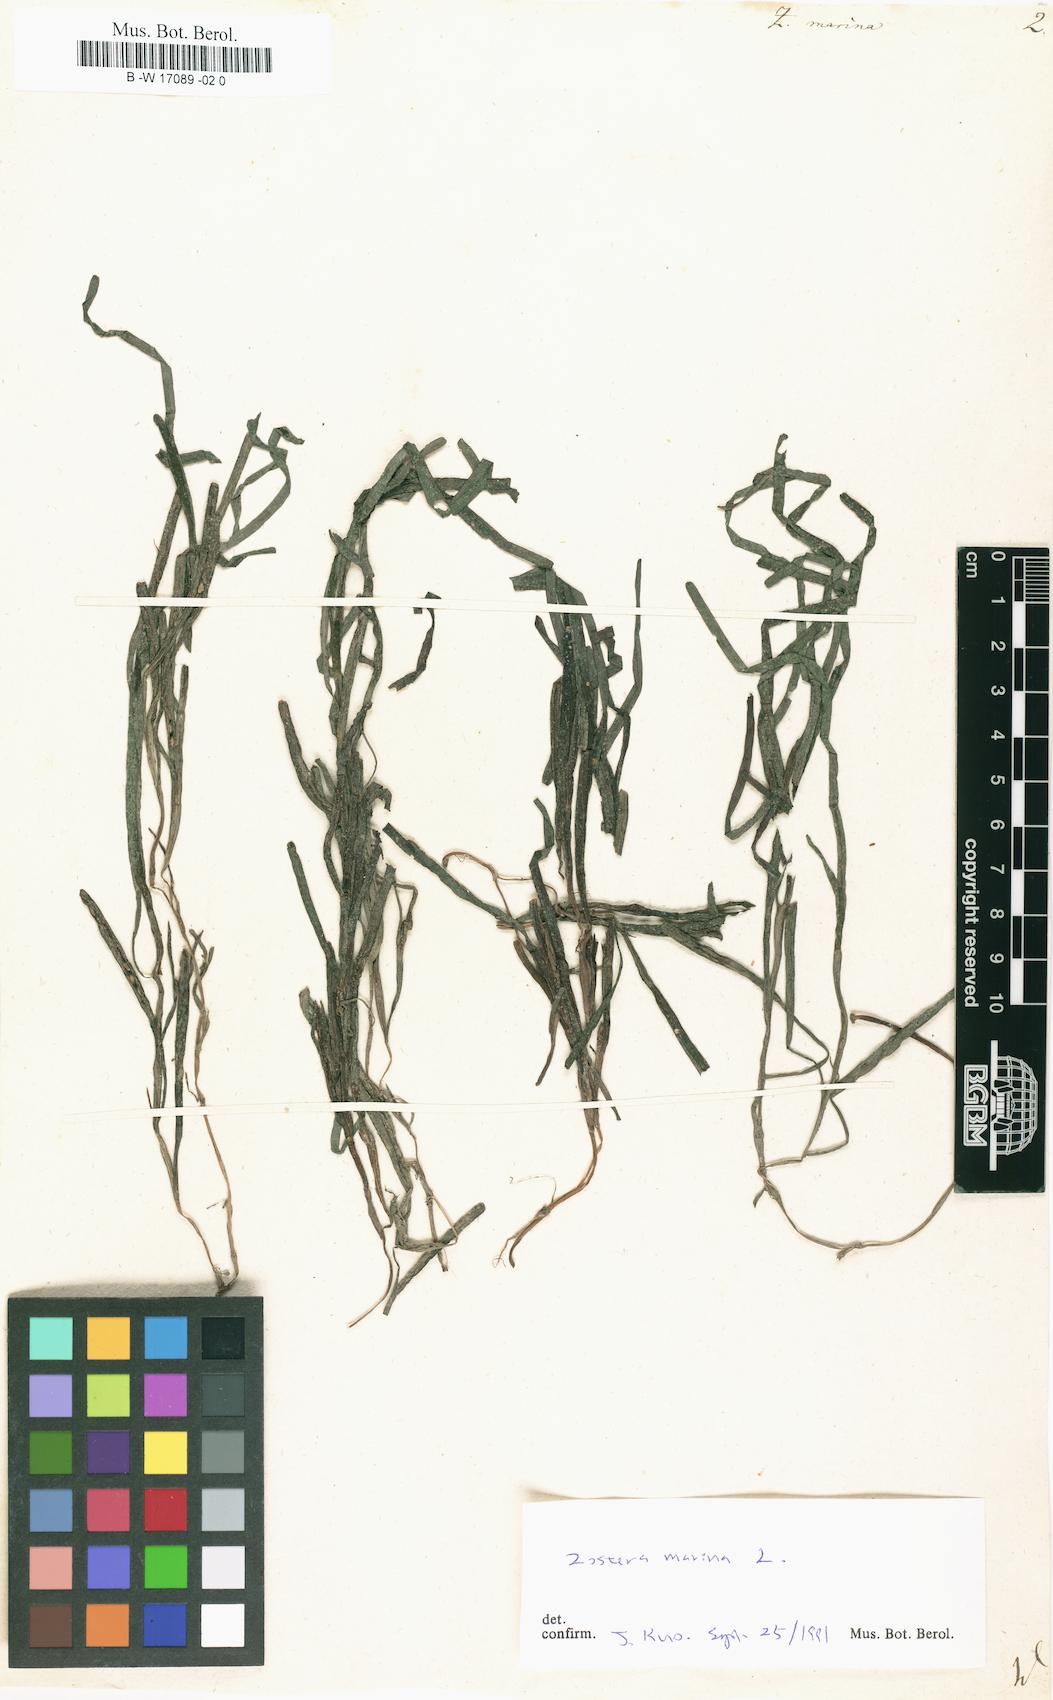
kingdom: Plantae
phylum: Tracheophyta
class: Liliopsida
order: Alismatales
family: Zosteraceae
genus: Zostera
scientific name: Zostera marina
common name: Eelgrass
